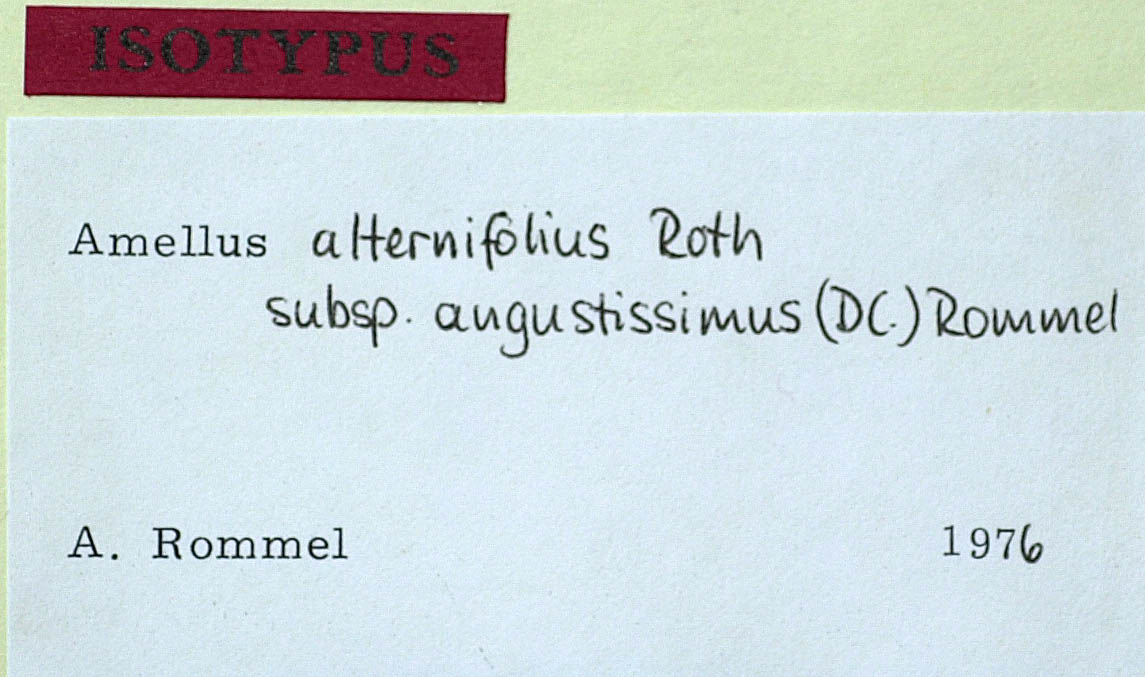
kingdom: Plantae
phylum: Tracheophyta
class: Magnoliopsida
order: Asterales
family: Asteraceae
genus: Amellus
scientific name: Amellus alternifolius
